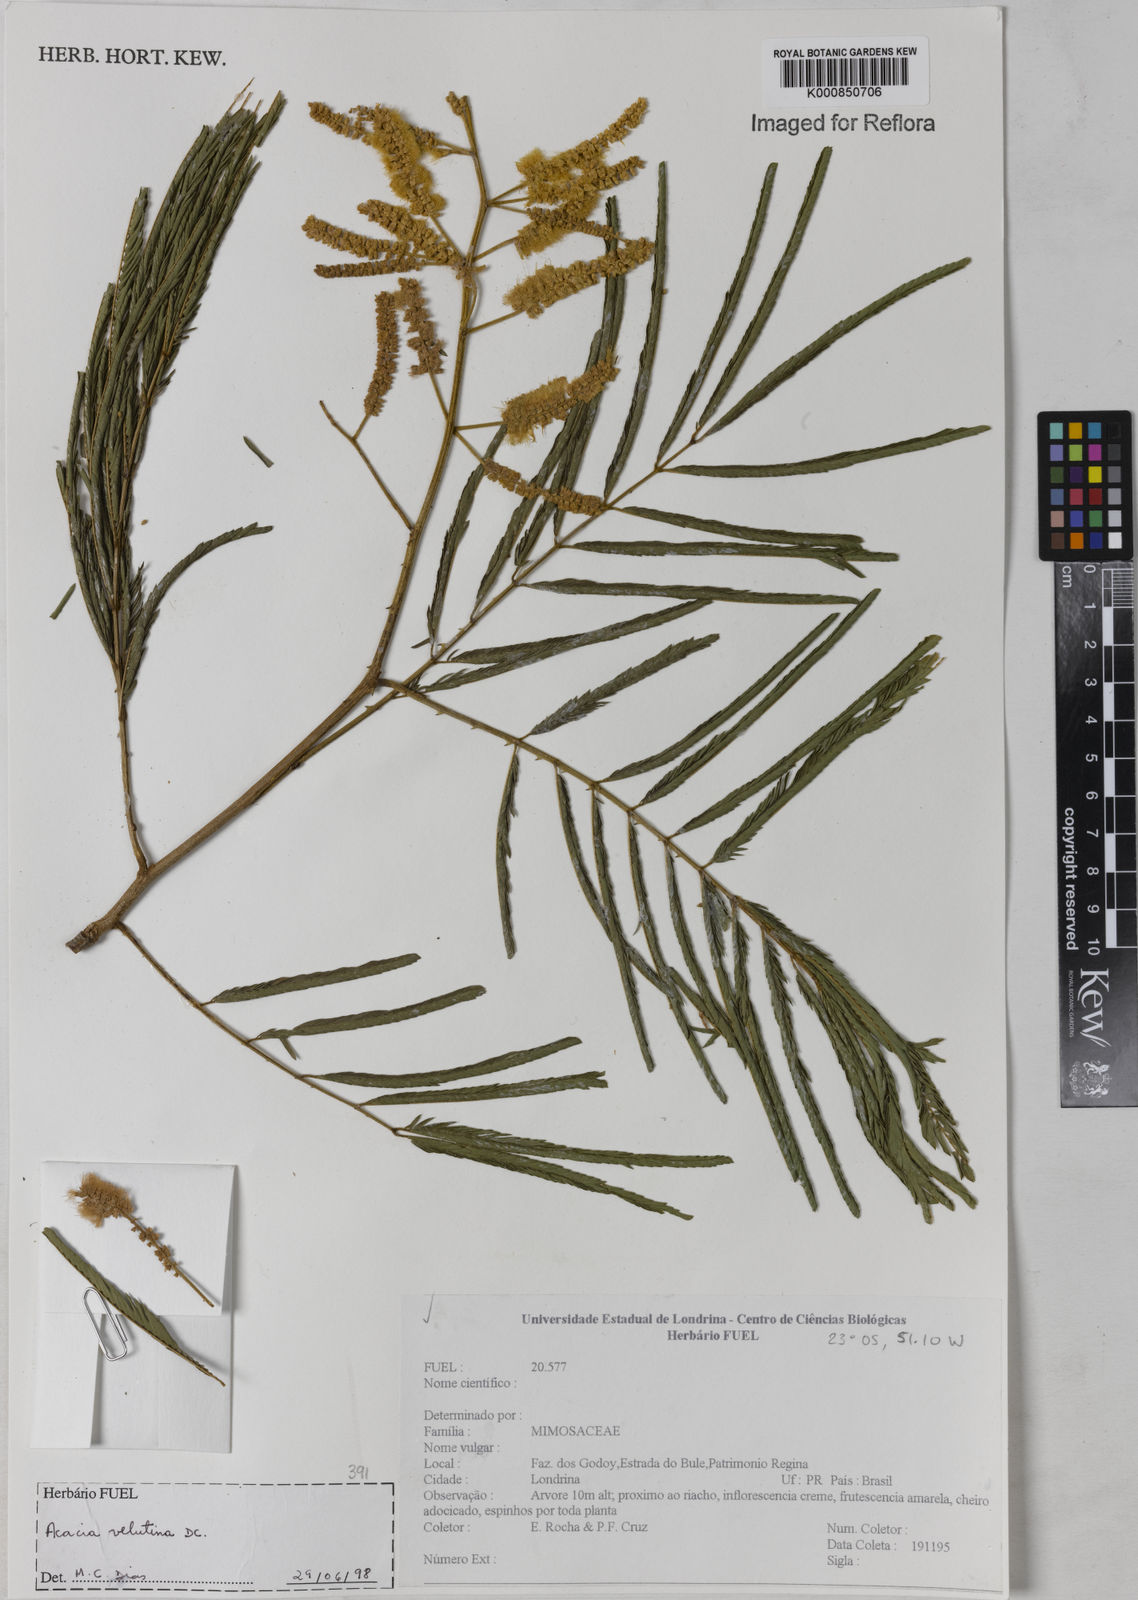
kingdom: Plantae
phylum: Tracheophyta
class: Magnoliopsida
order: Fabales
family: Fabaceae
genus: Senegalia
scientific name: Senegalia velutina
